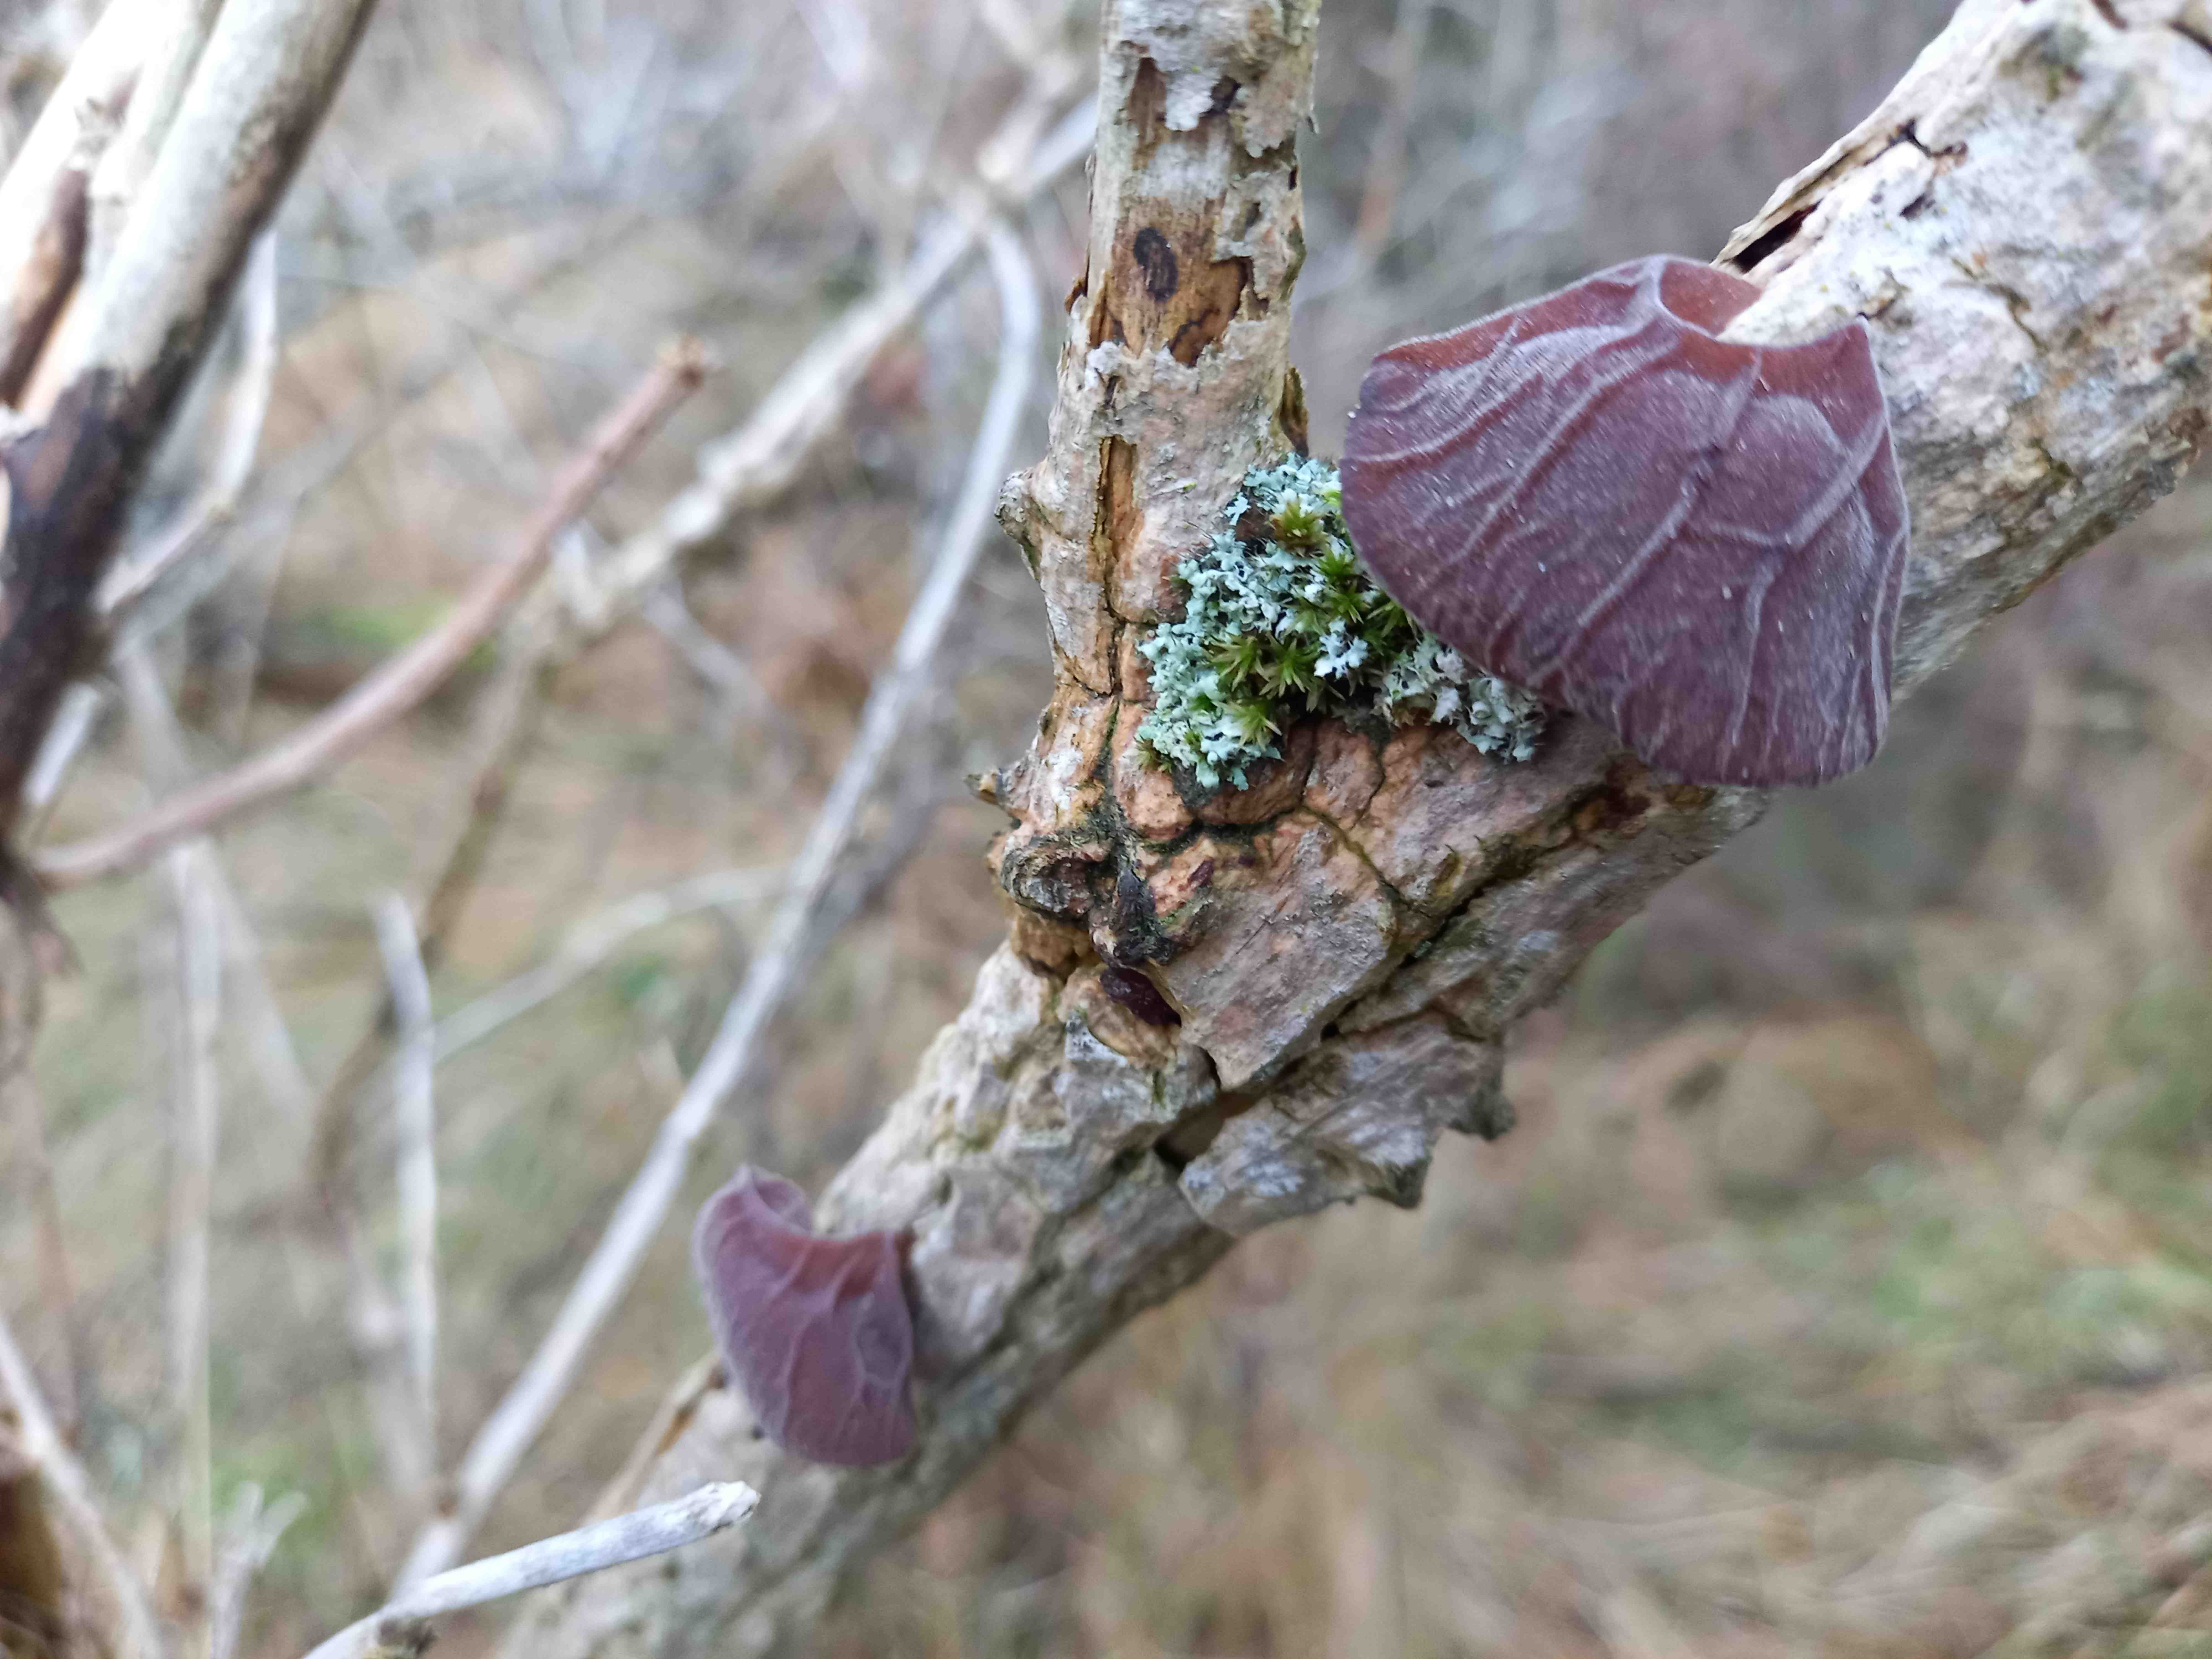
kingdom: Fungi
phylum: Basidiomycota
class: Agaricomycetes
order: Auriculariales
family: Auriculariaceae
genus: Auricularia
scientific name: Auricularia auricula-judae
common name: almindelig judasøre
